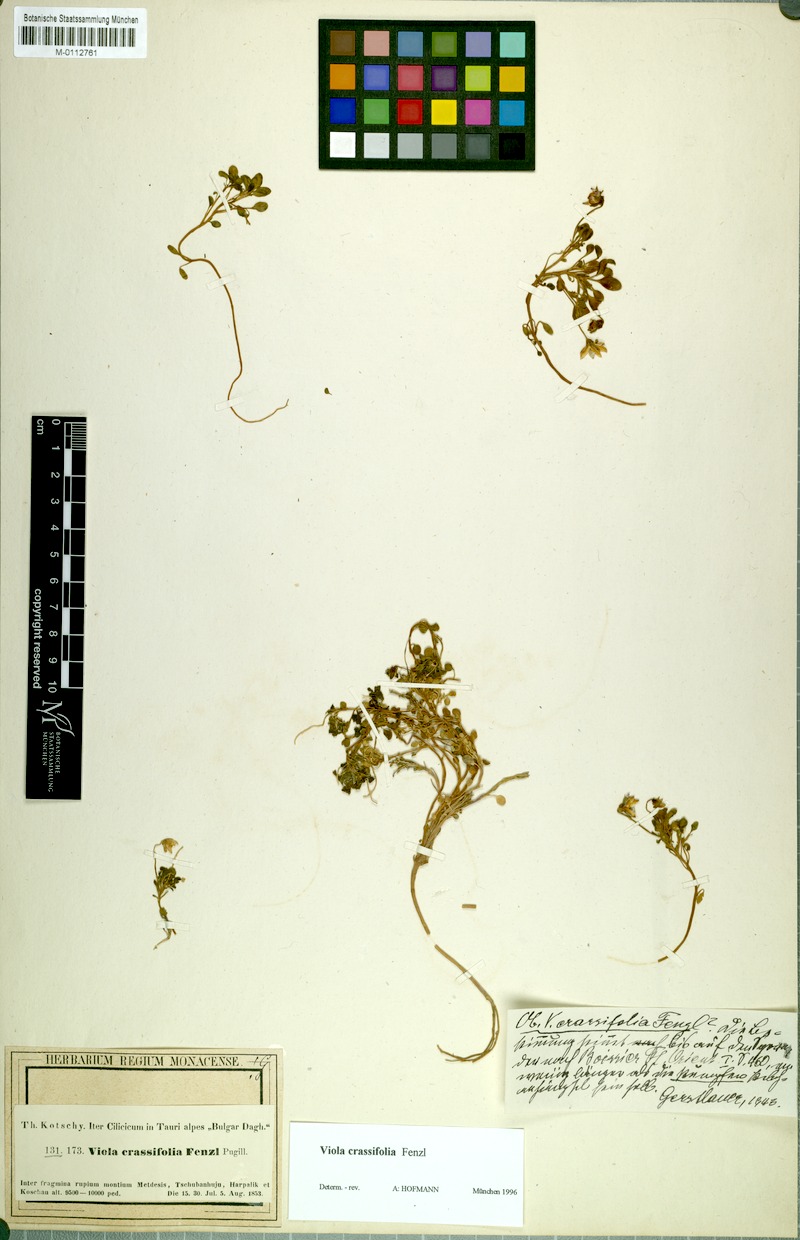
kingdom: Plantae
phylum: Tracheophyta
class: Magnoliopsida
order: Malpighiales
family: Violaceae
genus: Viola
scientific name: Viola crassifolia
